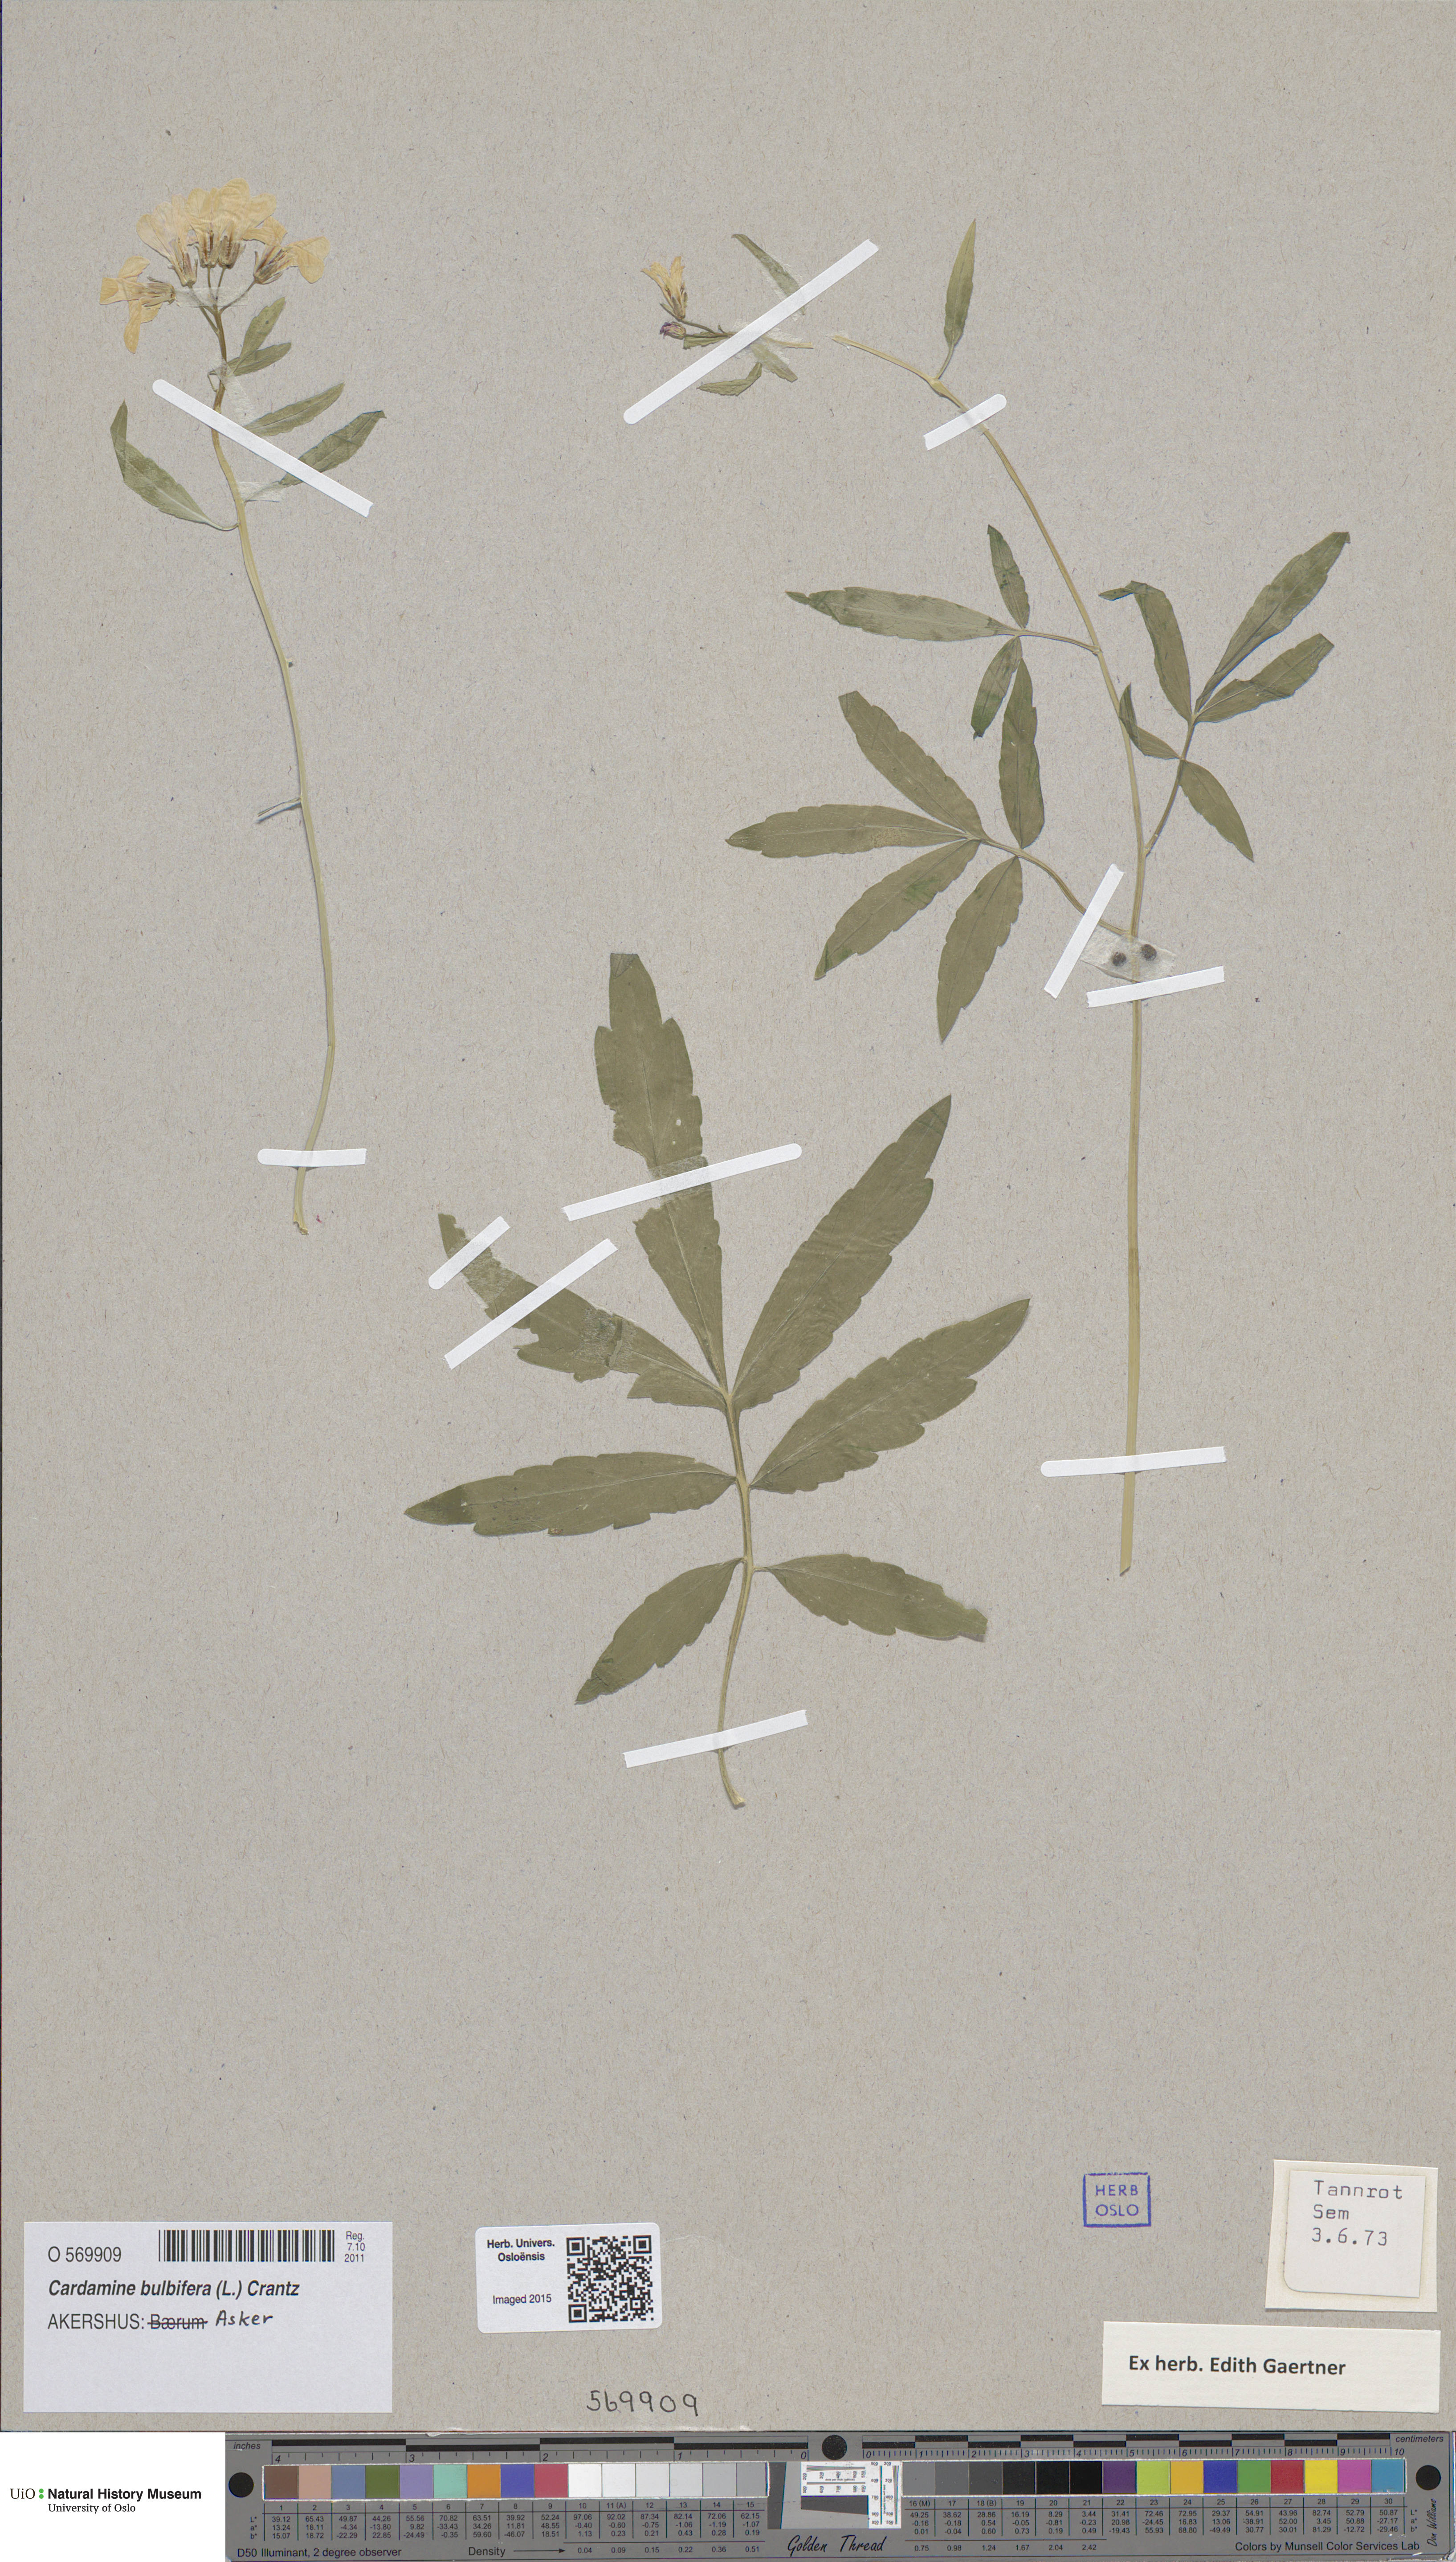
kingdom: Plantae
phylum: Tracheophyta
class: Magnoliopsida
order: Brassicales
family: Brassicaceae
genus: Cardamine
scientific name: Cardamine bulbifera
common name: Coralroot bittercress
